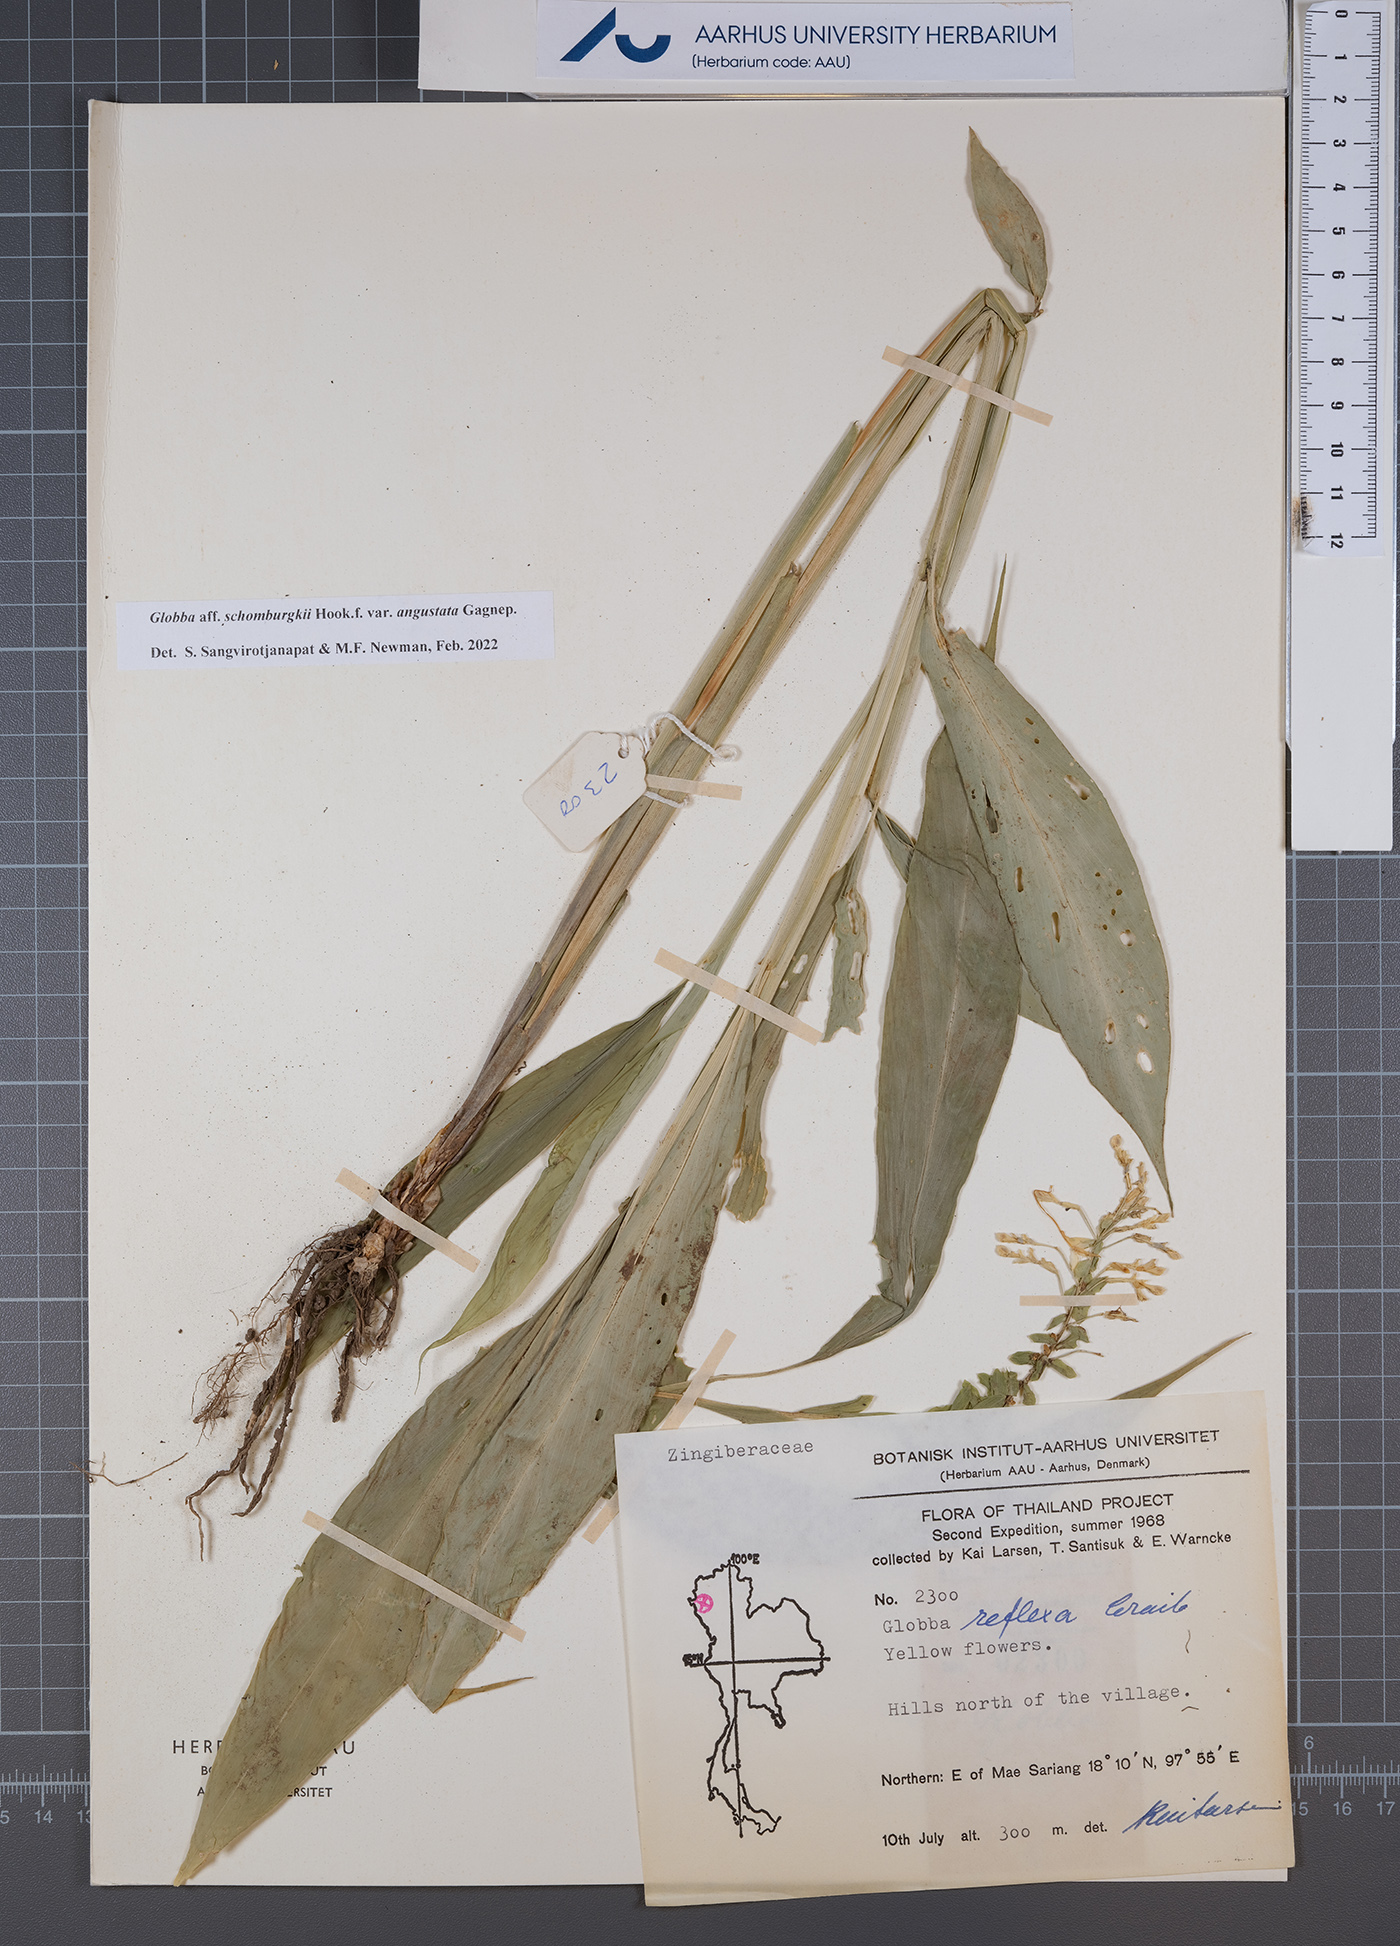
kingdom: Plantae
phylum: Tracheophyta
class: Liliopsida
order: Zingiberales
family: Zingiberaceae
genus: Globba
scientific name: Globba schomburgkii
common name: Dancing girl ginger
